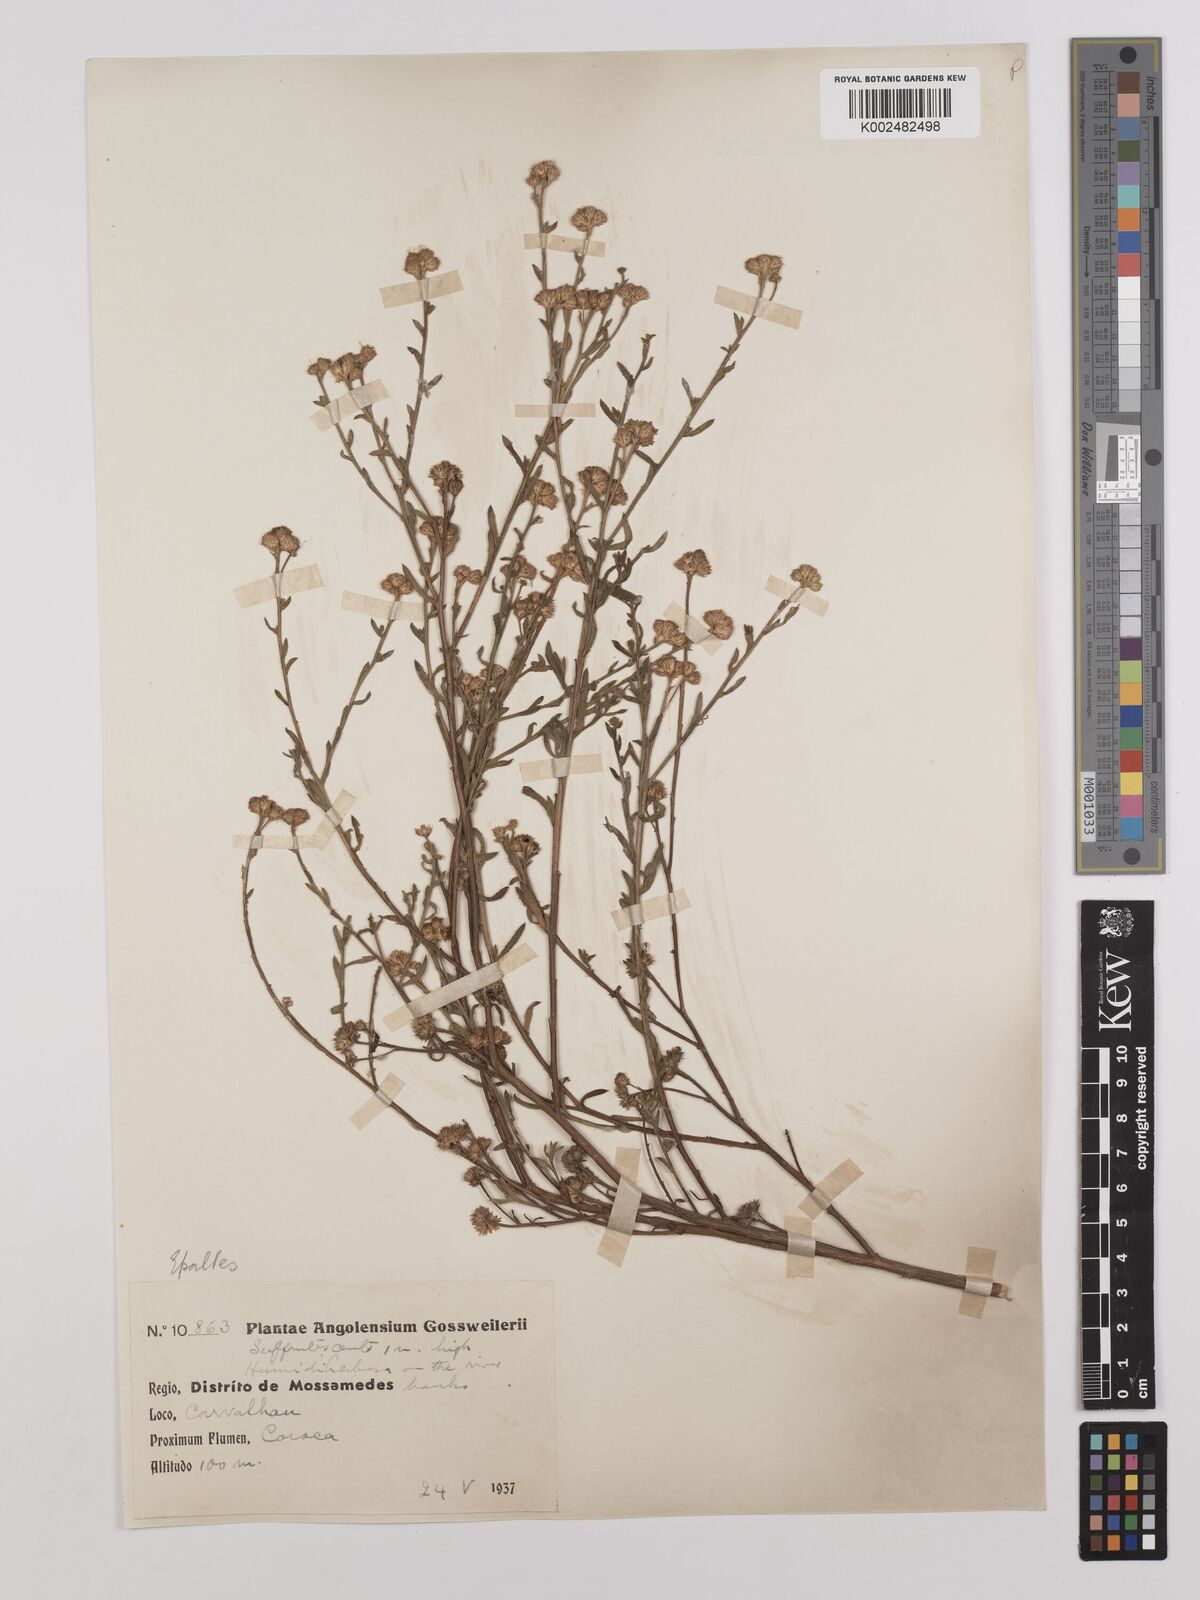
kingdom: Plantae
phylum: Tracheophyta
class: Magnoliopsida
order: Asterales
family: Asteraceae
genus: Litogyne
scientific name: Litogyne gariepina
